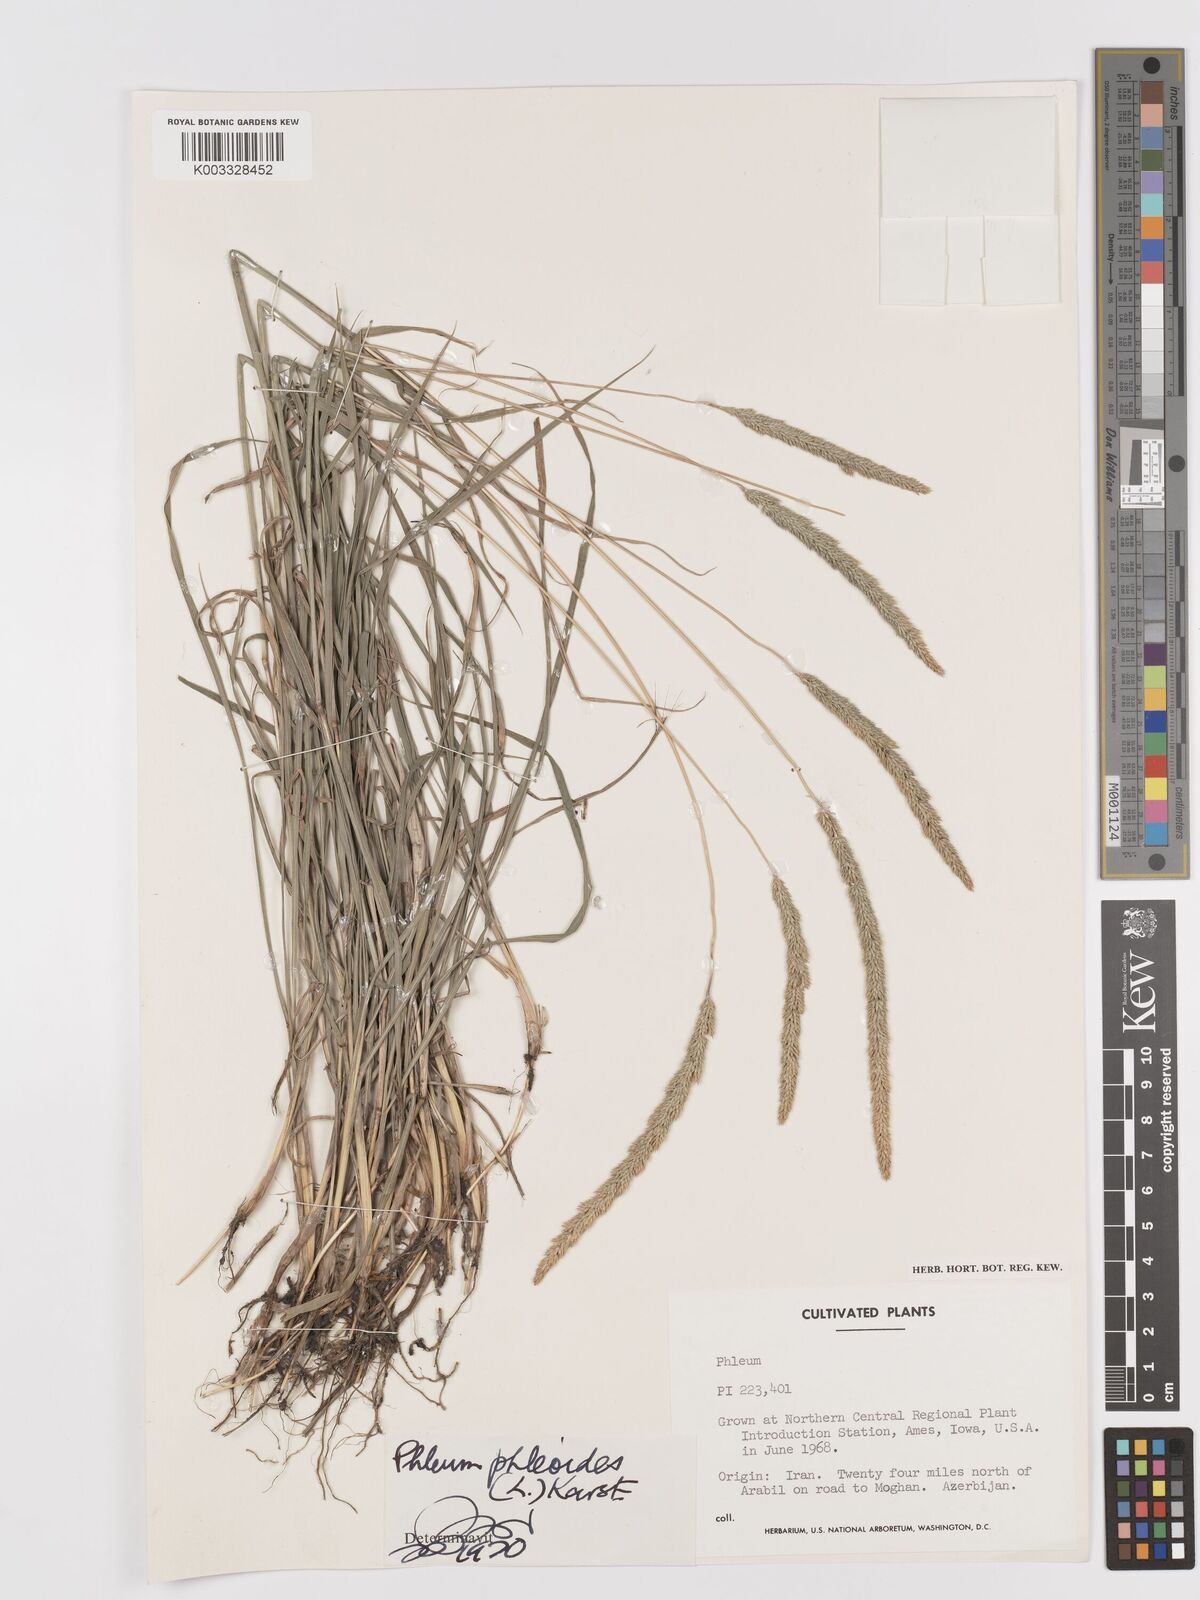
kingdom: Plantae
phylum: Tracheophyta
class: Liliopsida
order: Poales
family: Poaceae
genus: Phleum
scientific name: Phleum phleoides
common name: Purple-stem cat's-tail
